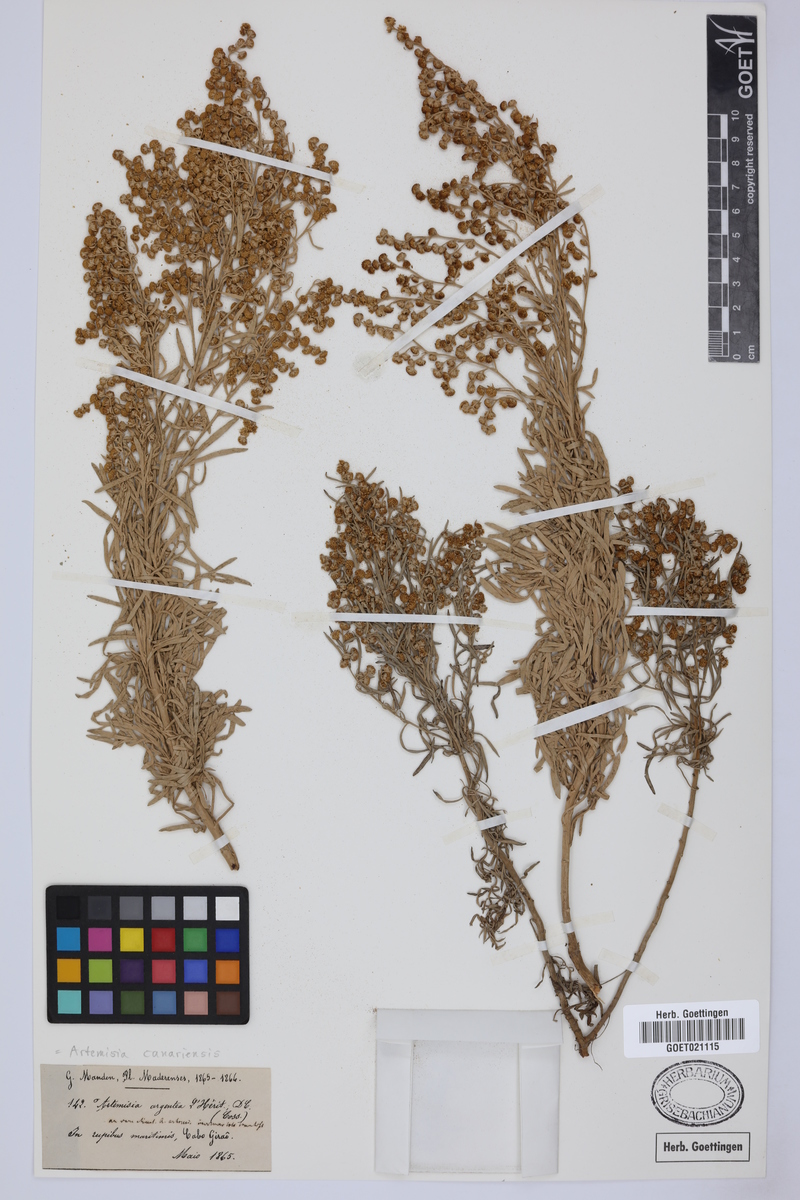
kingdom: Plantae
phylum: Tracheophyta
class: Magnoliopsida
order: Asterales
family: Asteraceae
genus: Artemisia
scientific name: Artemisia thuscula
